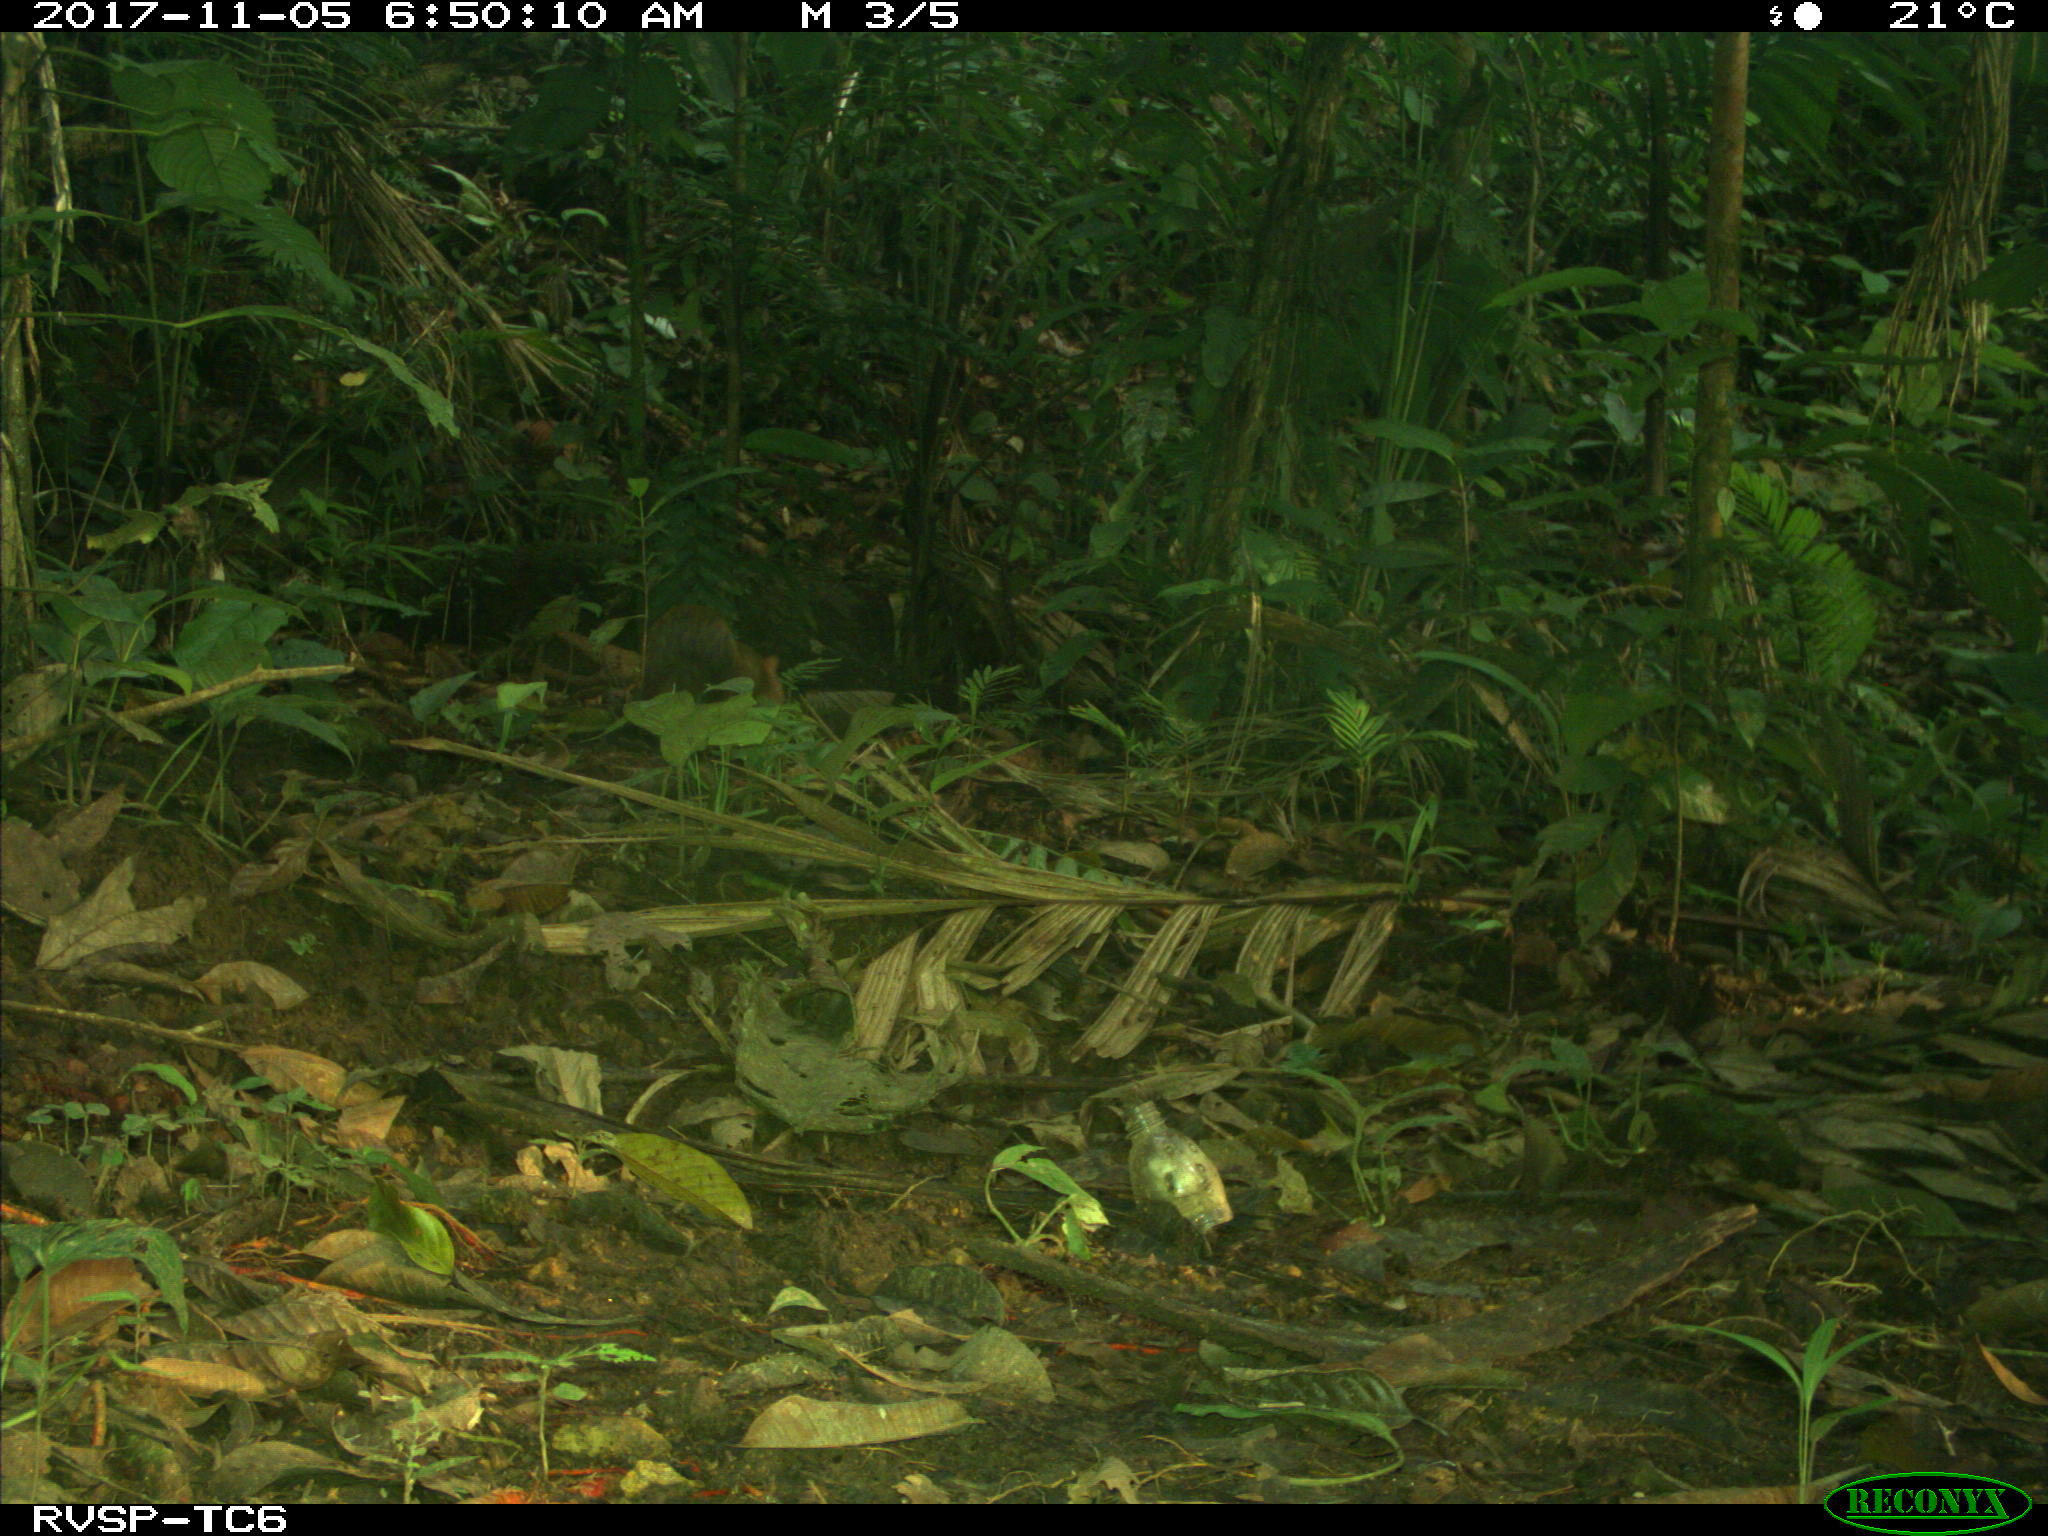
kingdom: Animalia
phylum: Chordata
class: Mammalia
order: Rodentia
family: Dasyproctidae
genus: Dasyprocta
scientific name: Dasyprocta punctata
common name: Central american agouti
